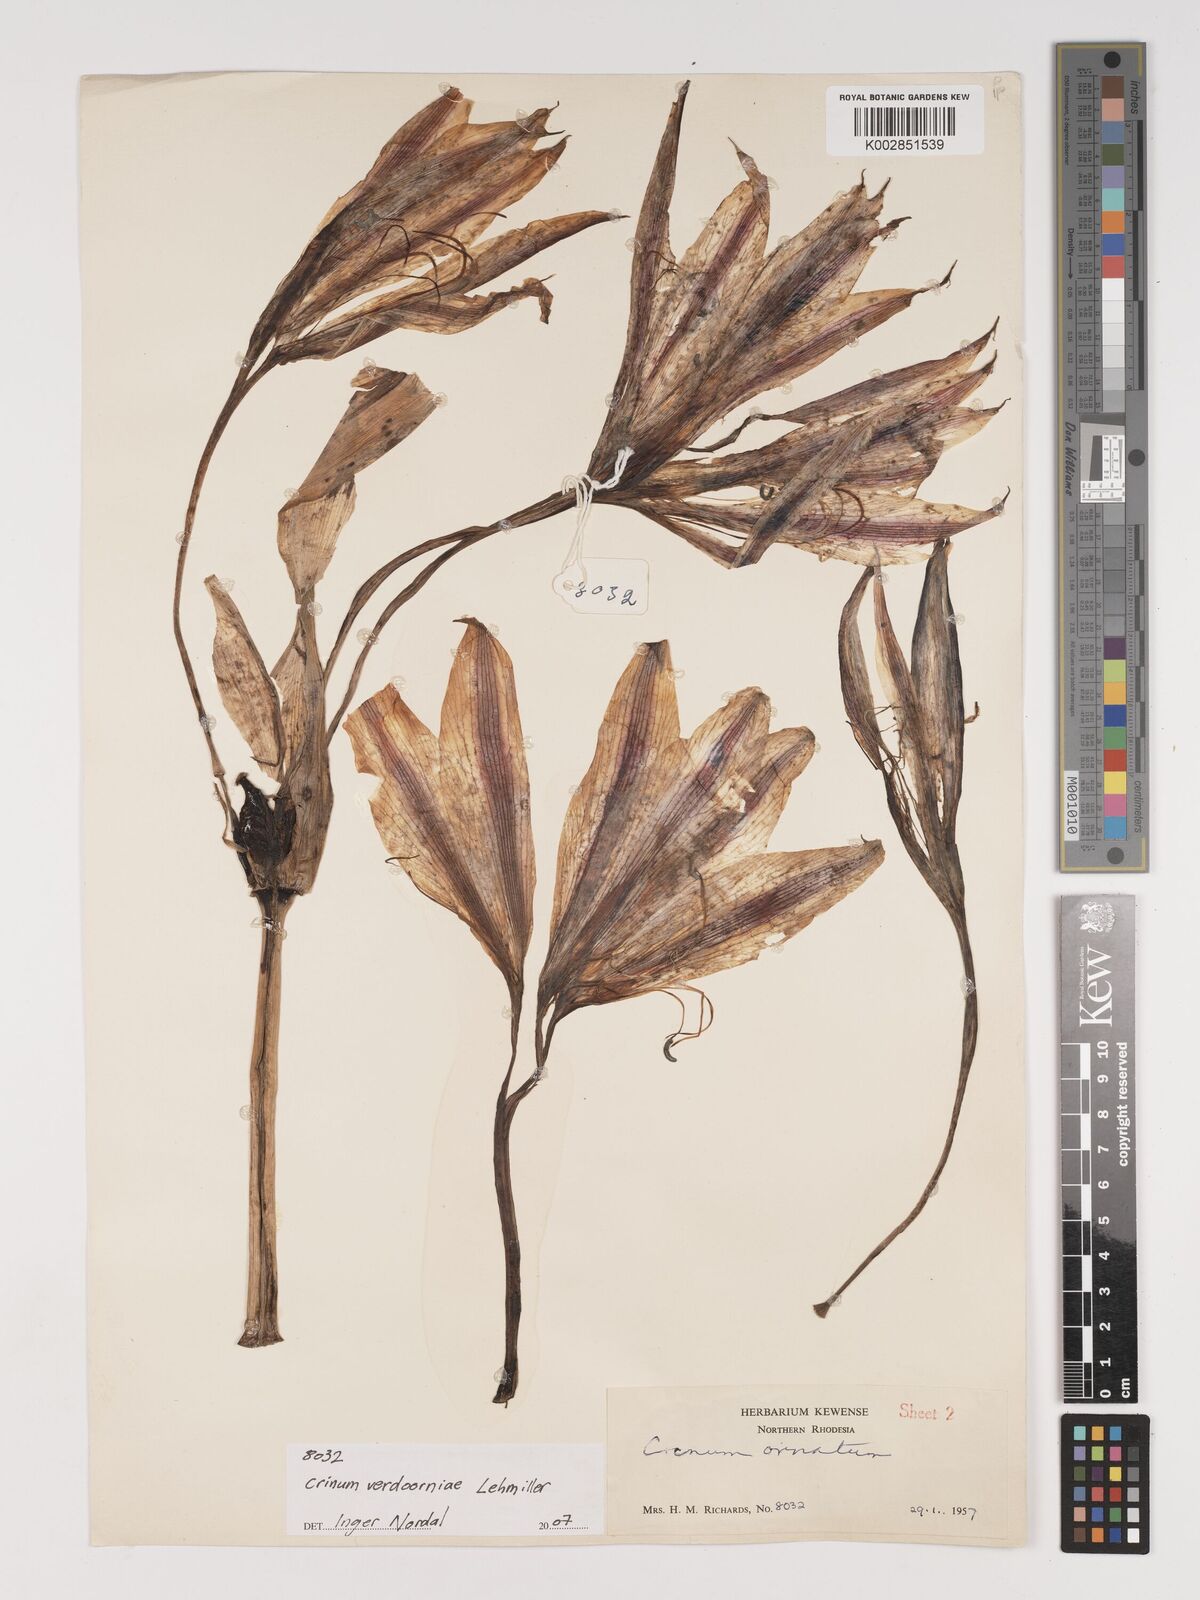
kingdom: Plantae
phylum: Tracheophyta
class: Liliopsida
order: Asparagales
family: Amaryllidaceae
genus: Crinum
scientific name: Crinum verdoorniae
